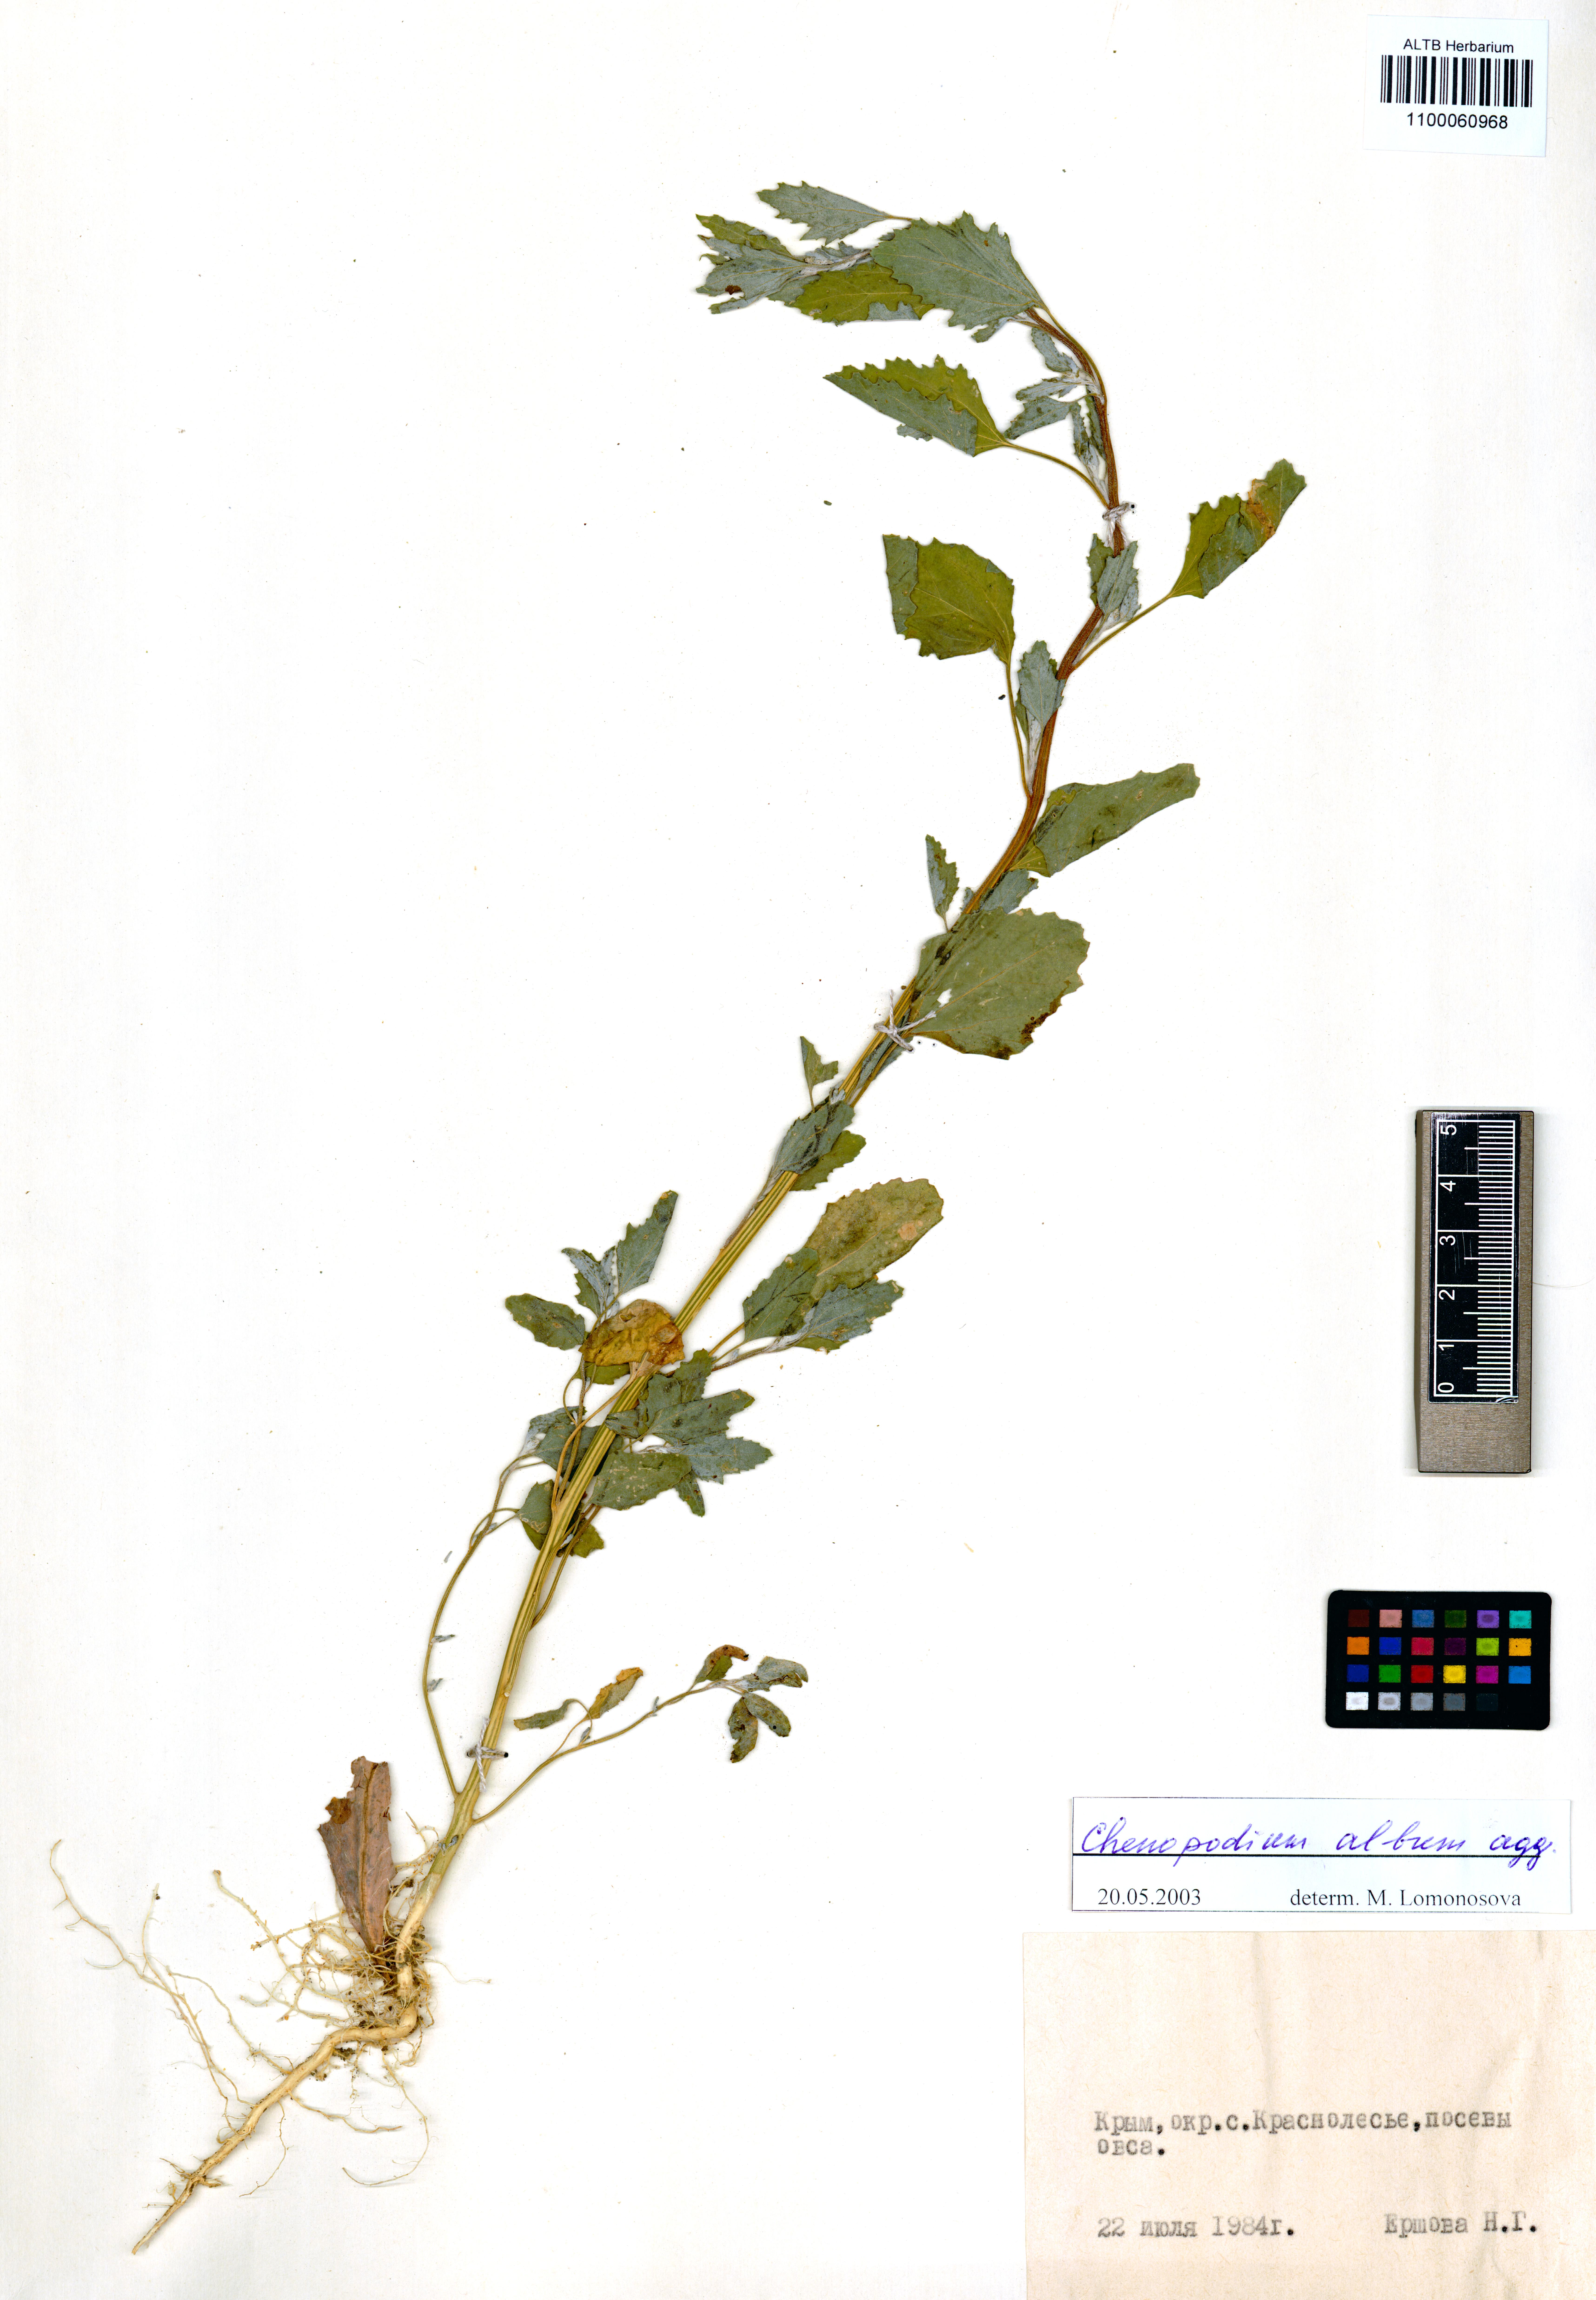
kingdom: Plantae
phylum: Tracheophyta
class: Magnoliopsida
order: Caryophyllales
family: Amaranthaceae
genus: Chenopodium
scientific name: Chenopodium album
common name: Fat-hen
